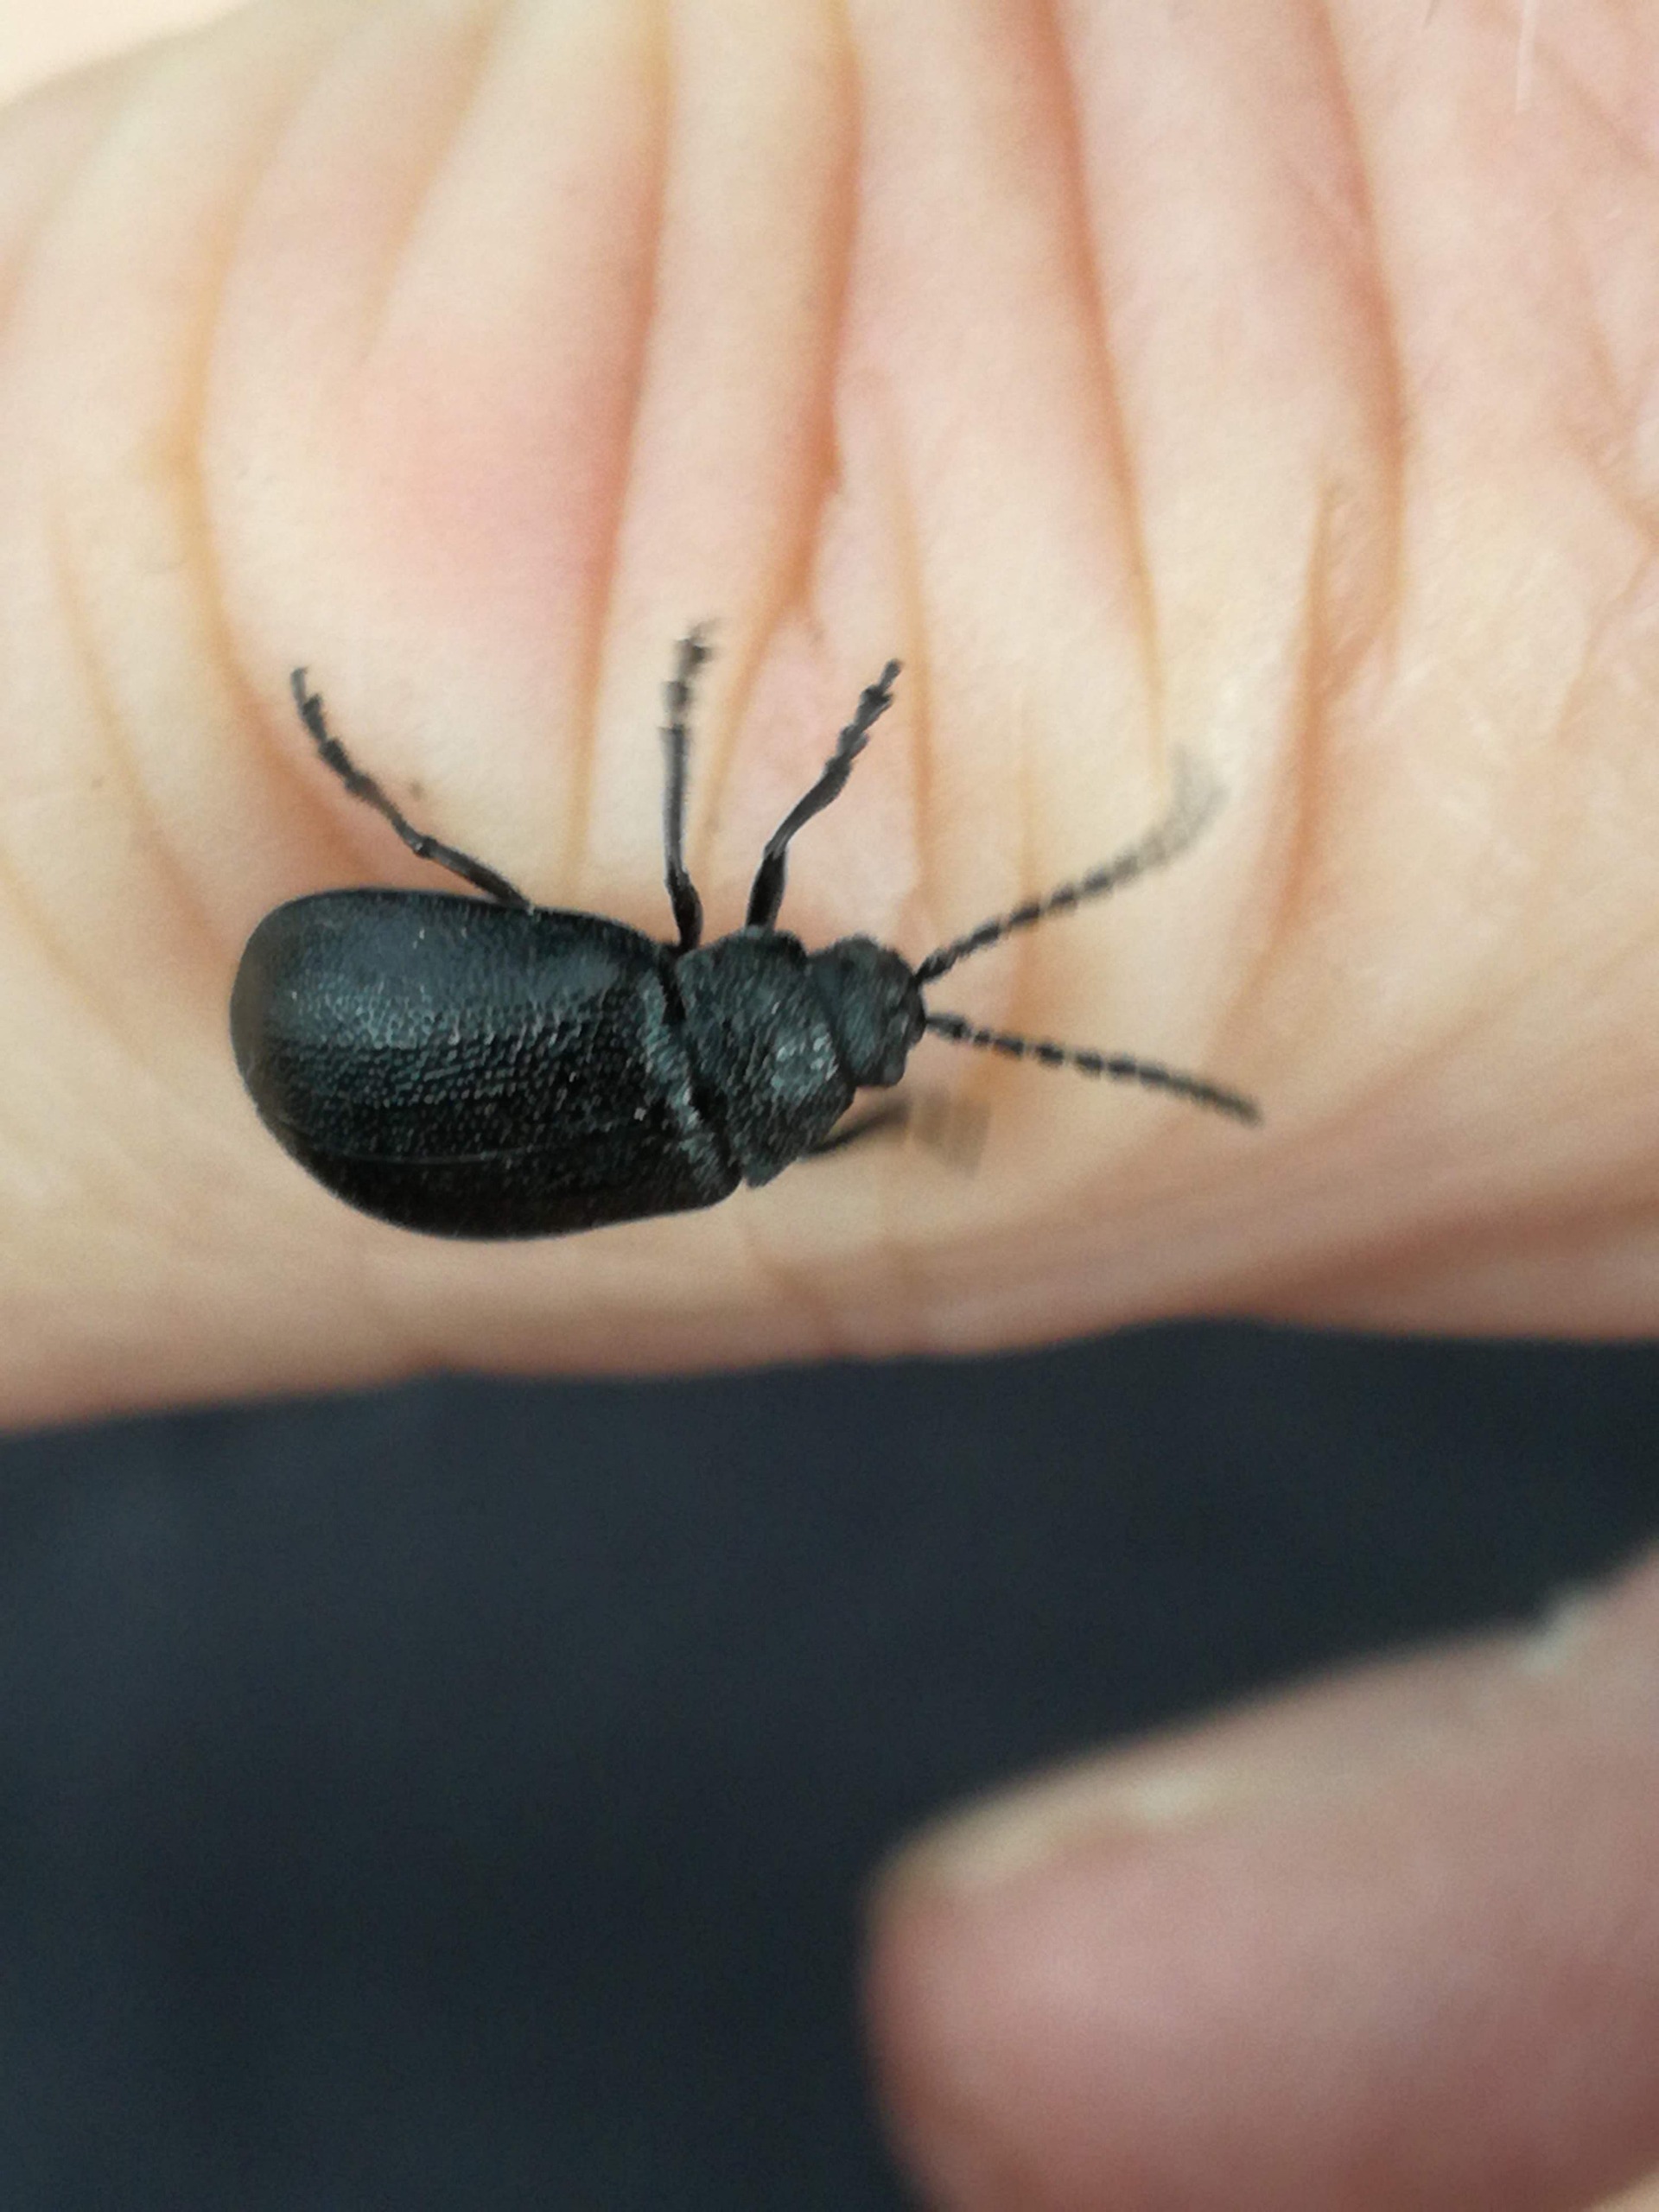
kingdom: Animalia
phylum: Arthropoda
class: Insecta
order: Coleoptera
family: Chrysomelidae
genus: Galeruca
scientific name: Galeruca tanaceti
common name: Rejnfanbladbille
